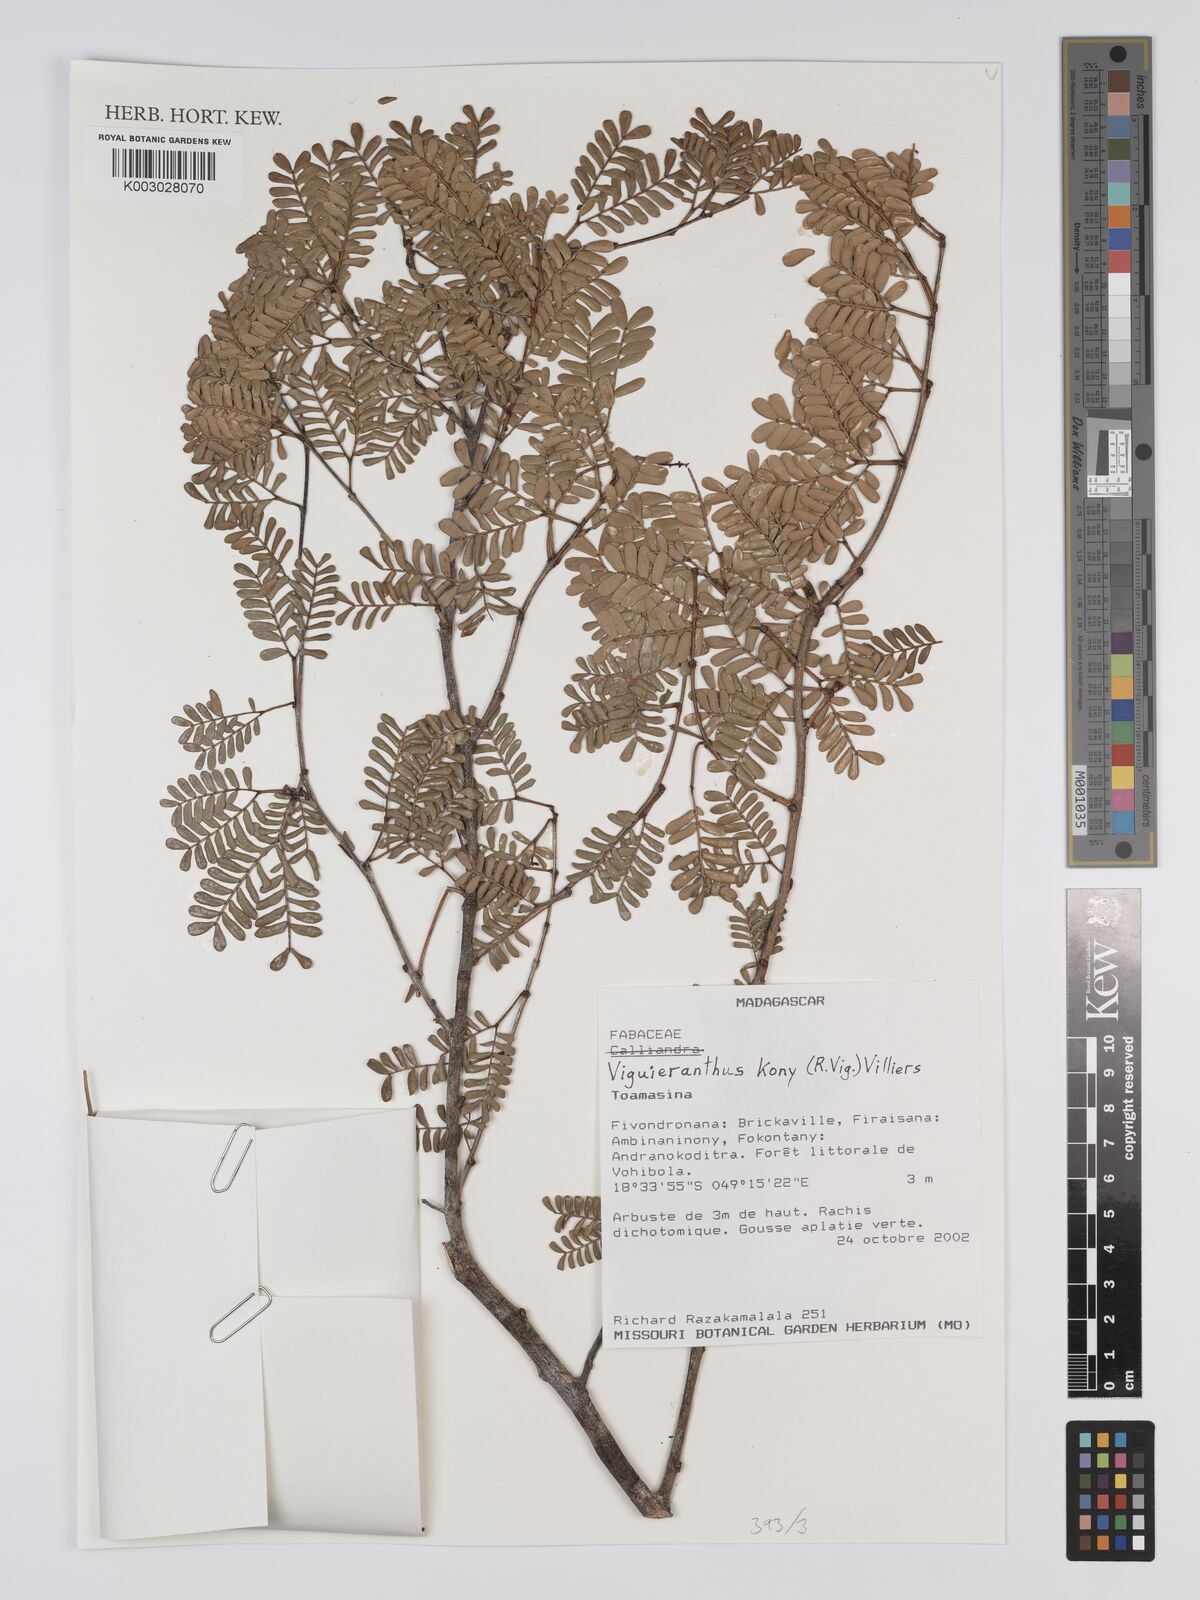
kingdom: Plantae
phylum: Tracheophyta
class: Magnoliopsida
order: Fabales
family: Fabaceae
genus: Viguieranthus
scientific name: Viguieranthus kony
